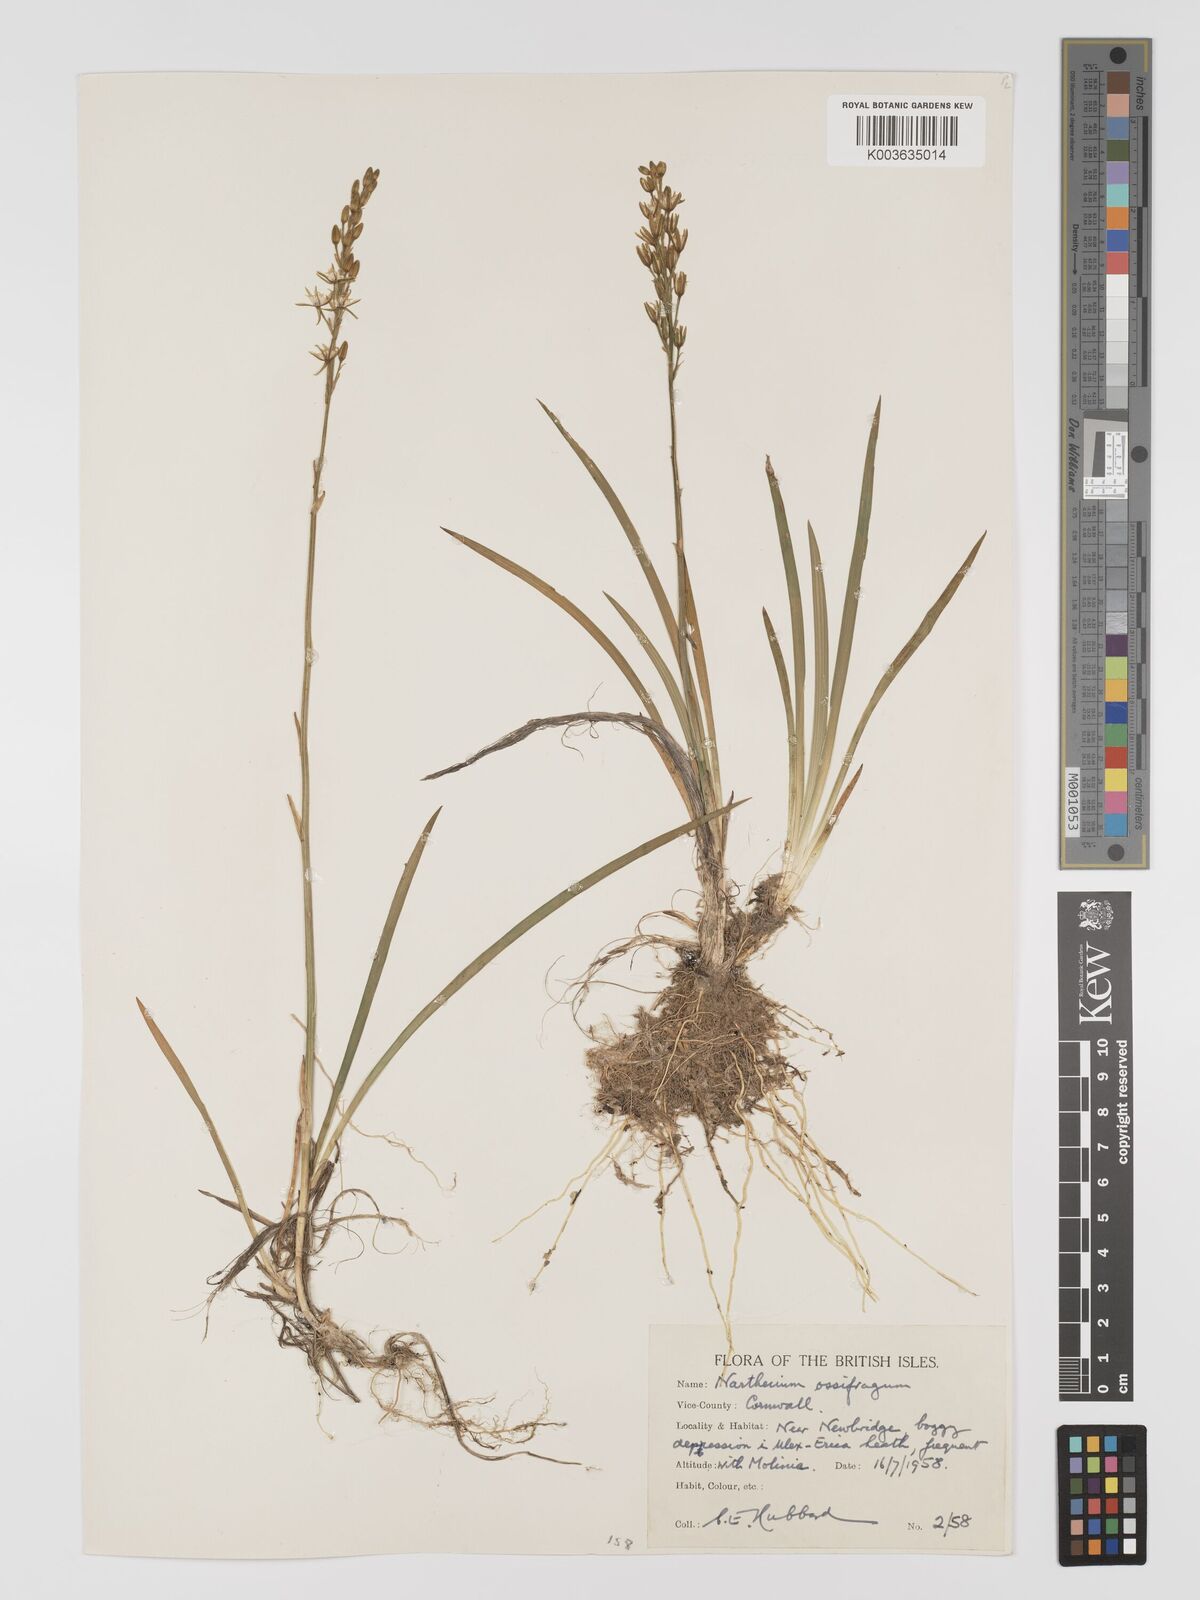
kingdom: Plantae
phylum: Tracheophyta
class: Liliopsida
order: Dioscoreales
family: Nartheciaceae
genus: Narthecium
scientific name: Narthecium ossifragum
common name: Bog asphodel
